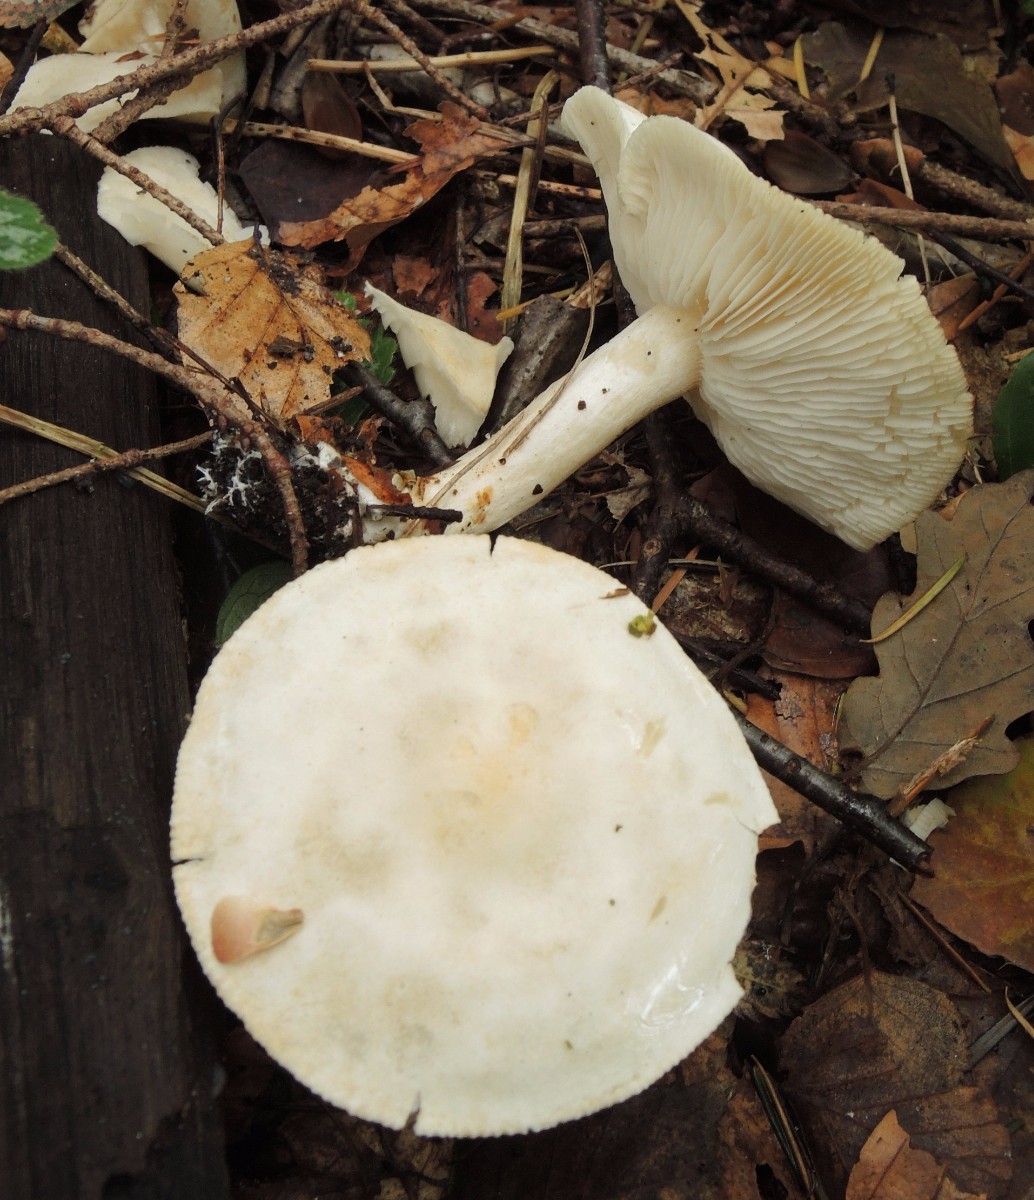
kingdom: Fungi
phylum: Basidiomycota
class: Agaricomycetes
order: Agaricales
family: Tricholomataceae
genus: Tricholoma
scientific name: Tricholoma stiparophyllum
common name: hvid ridderhat
